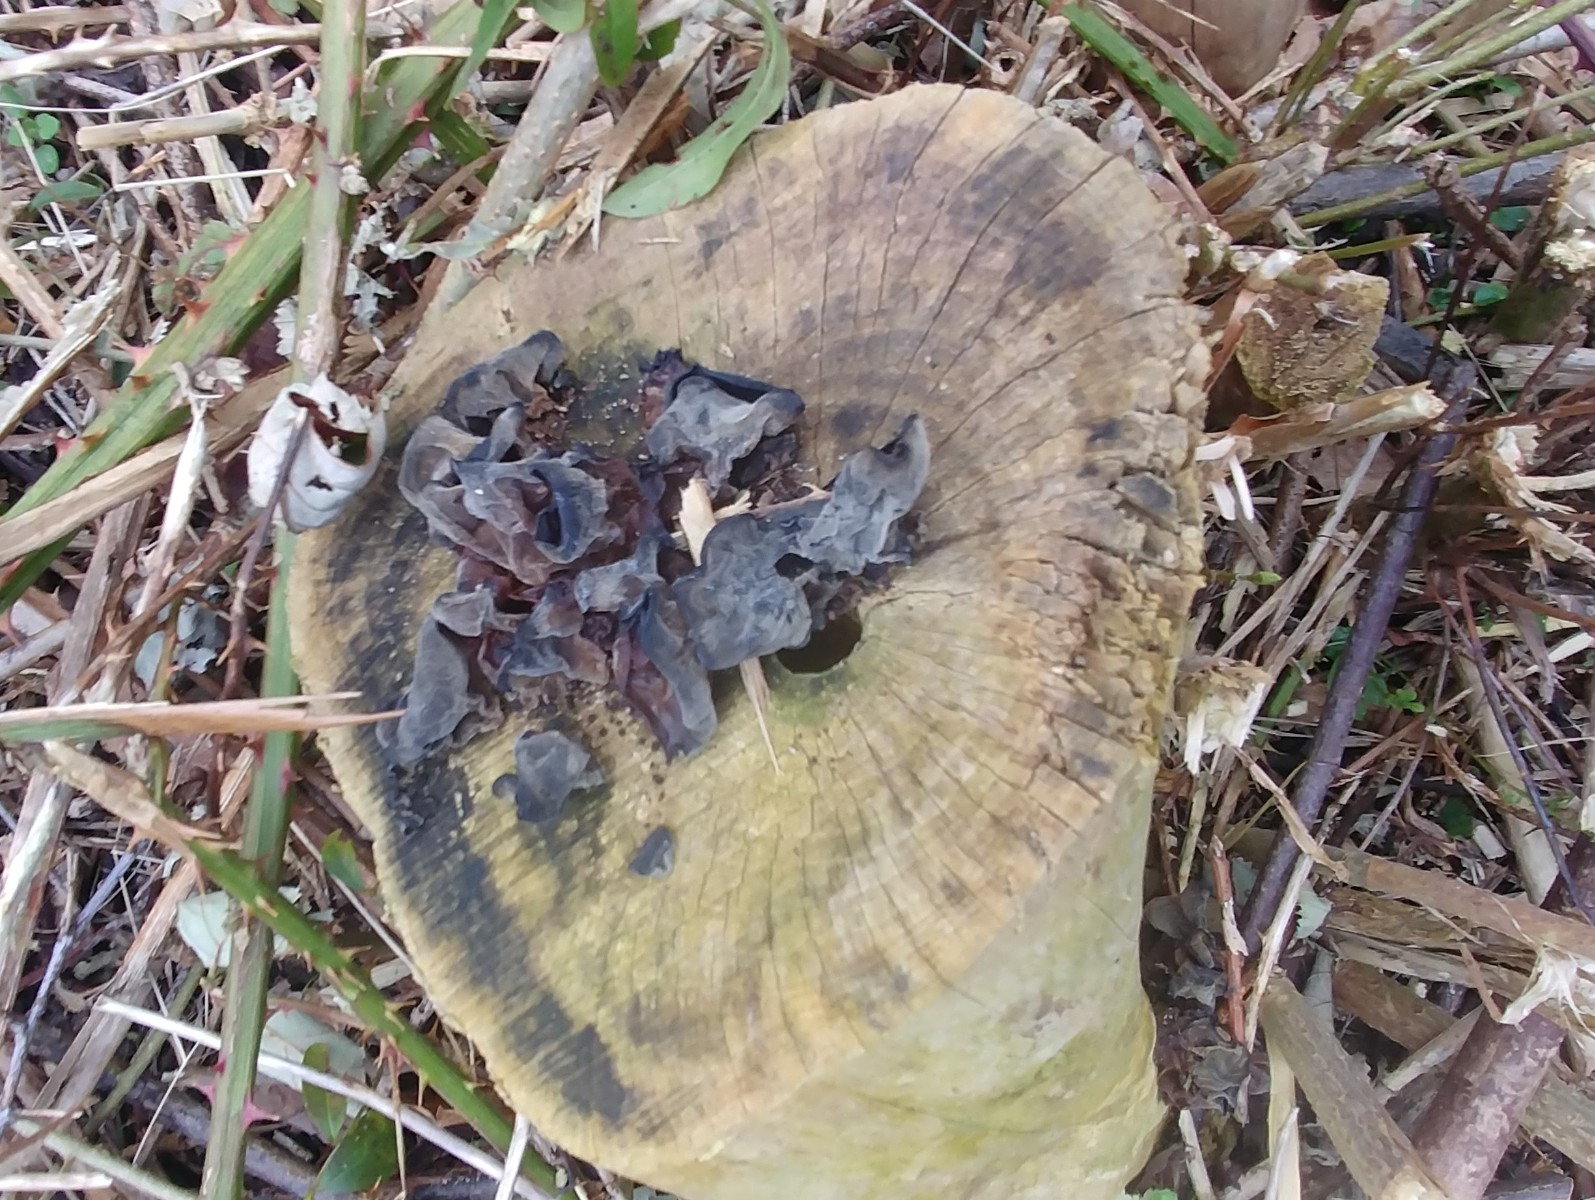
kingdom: Fungi
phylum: Basidiomycota
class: Agaricomycetes
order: Auriculariales
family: Auriculariaceae
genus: Auricularia
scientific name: Auricularia auricula-judae
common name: almindelig judasøre
